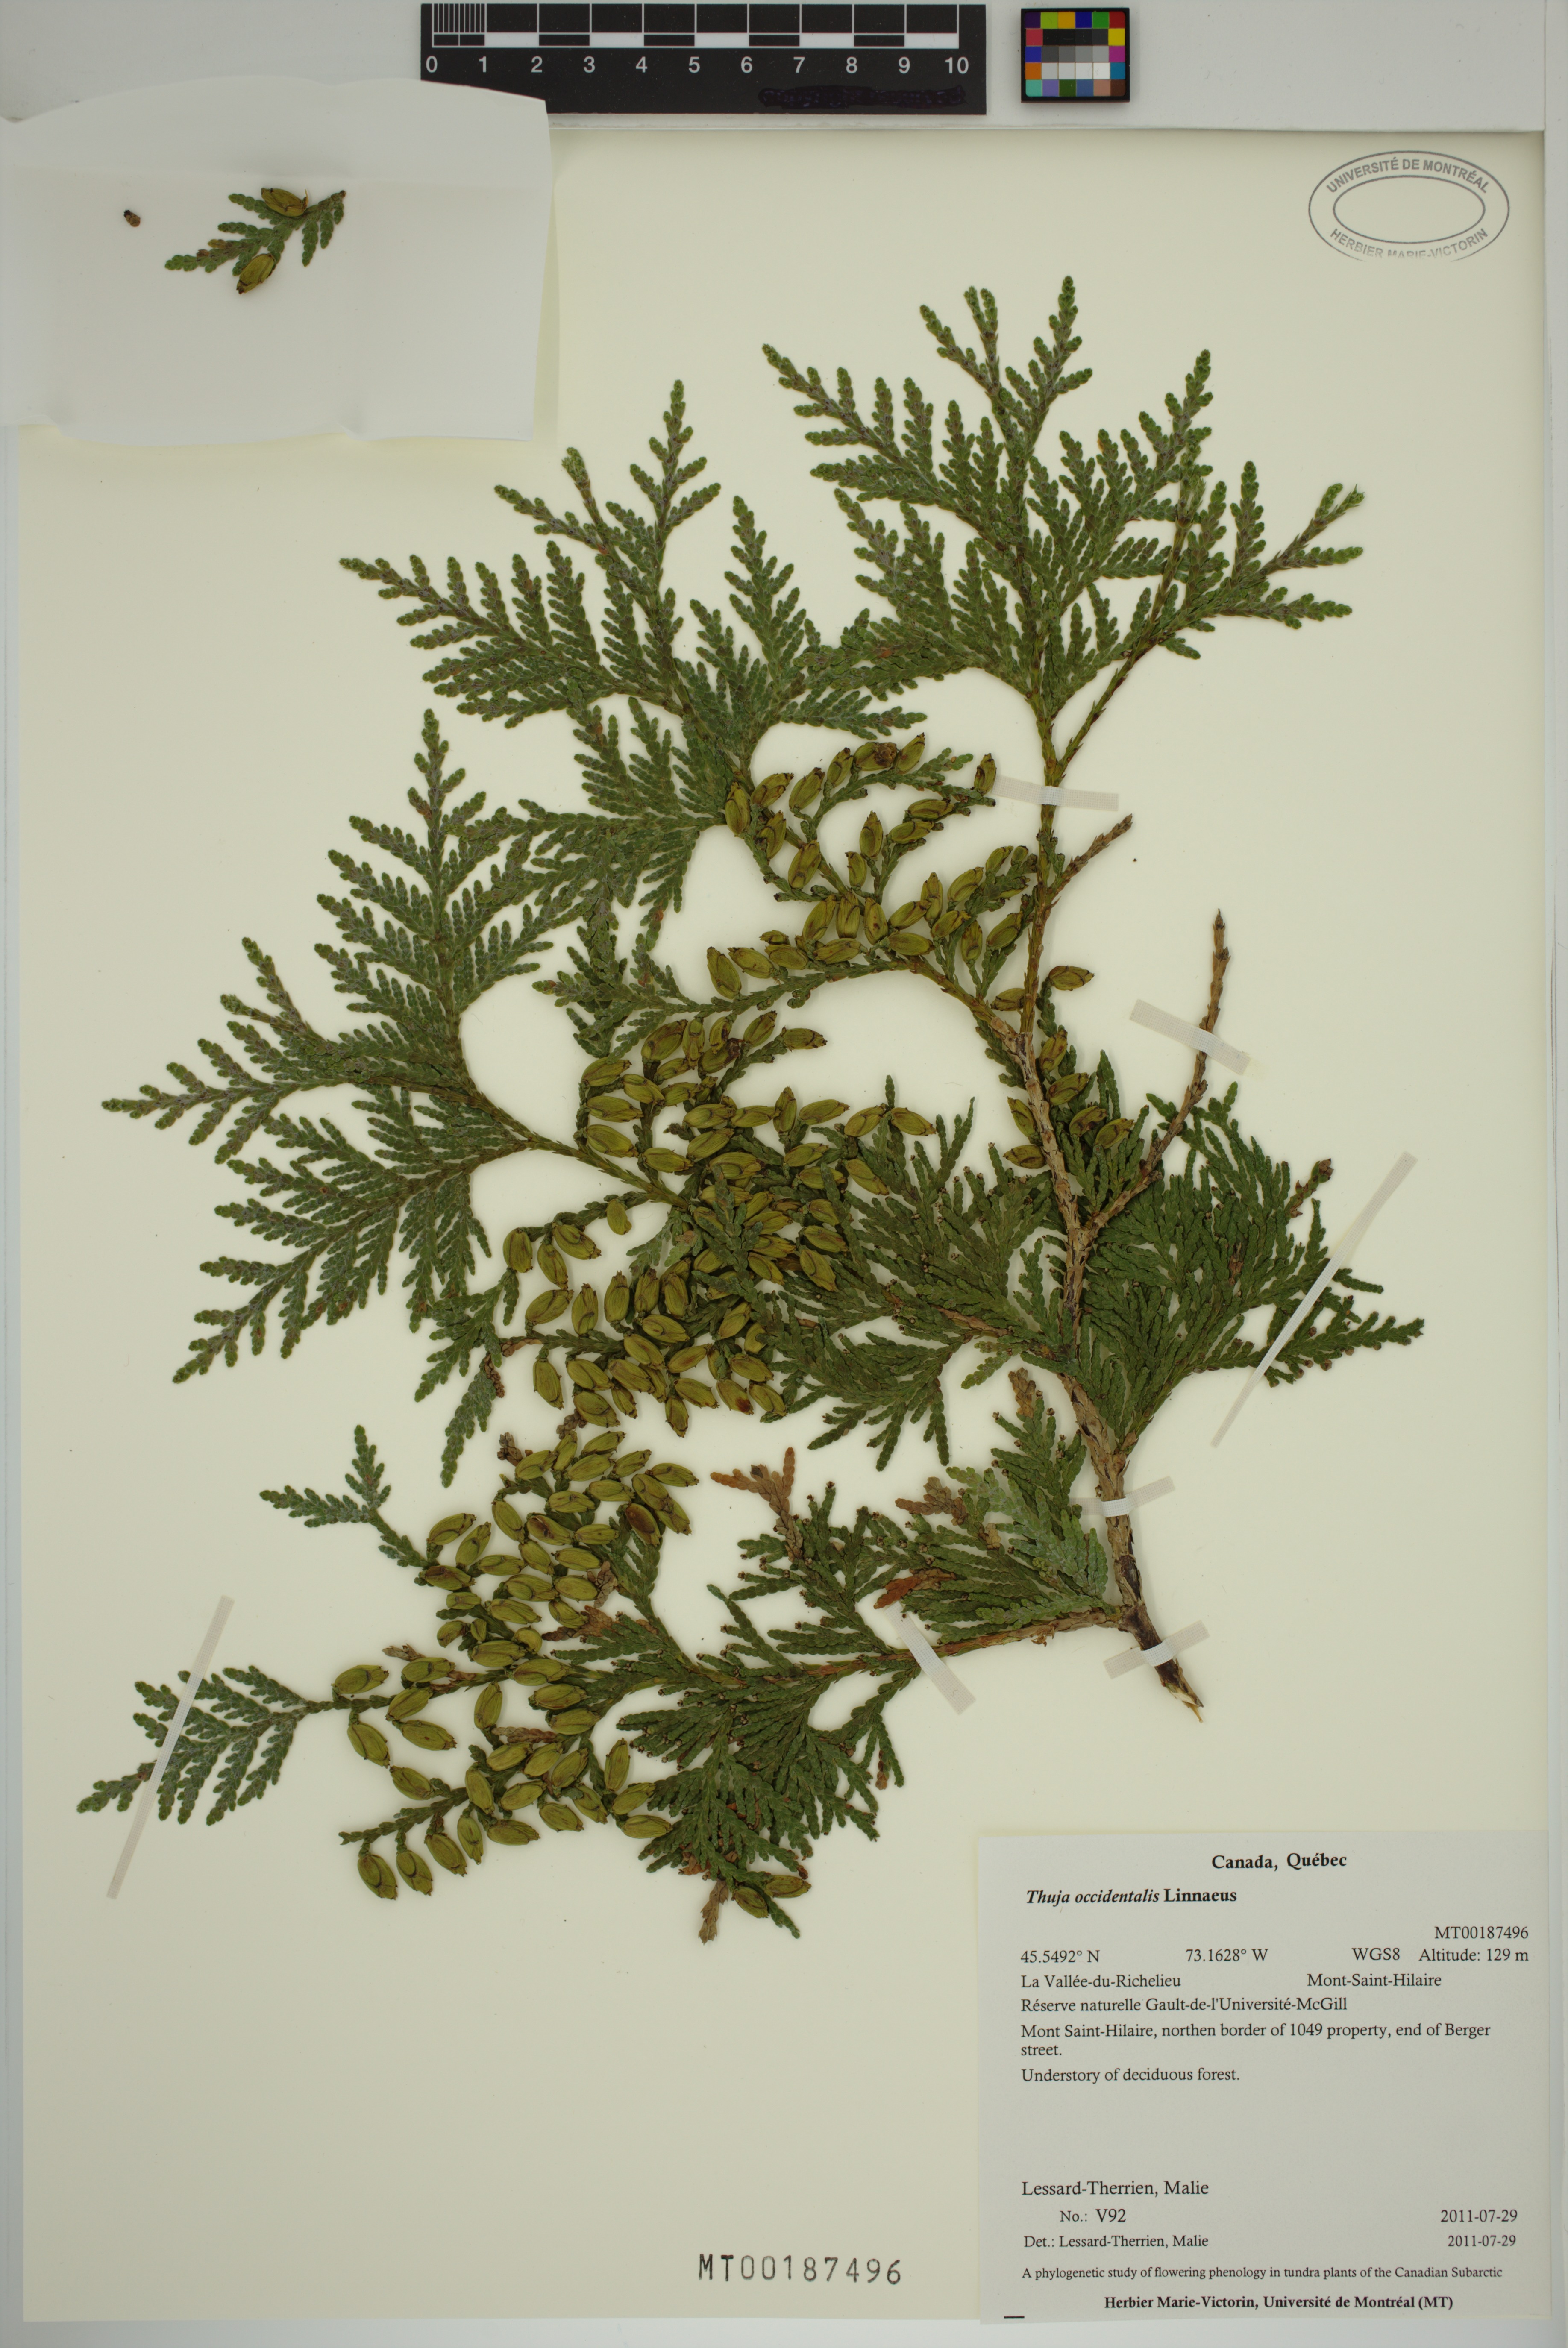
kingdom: Plantae
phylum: Tracheophyta
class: Pinopsida
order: Pinales
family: Cupressaceae
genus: Thuja
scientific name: Thuja occidentalis
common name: Northern white-cedar
